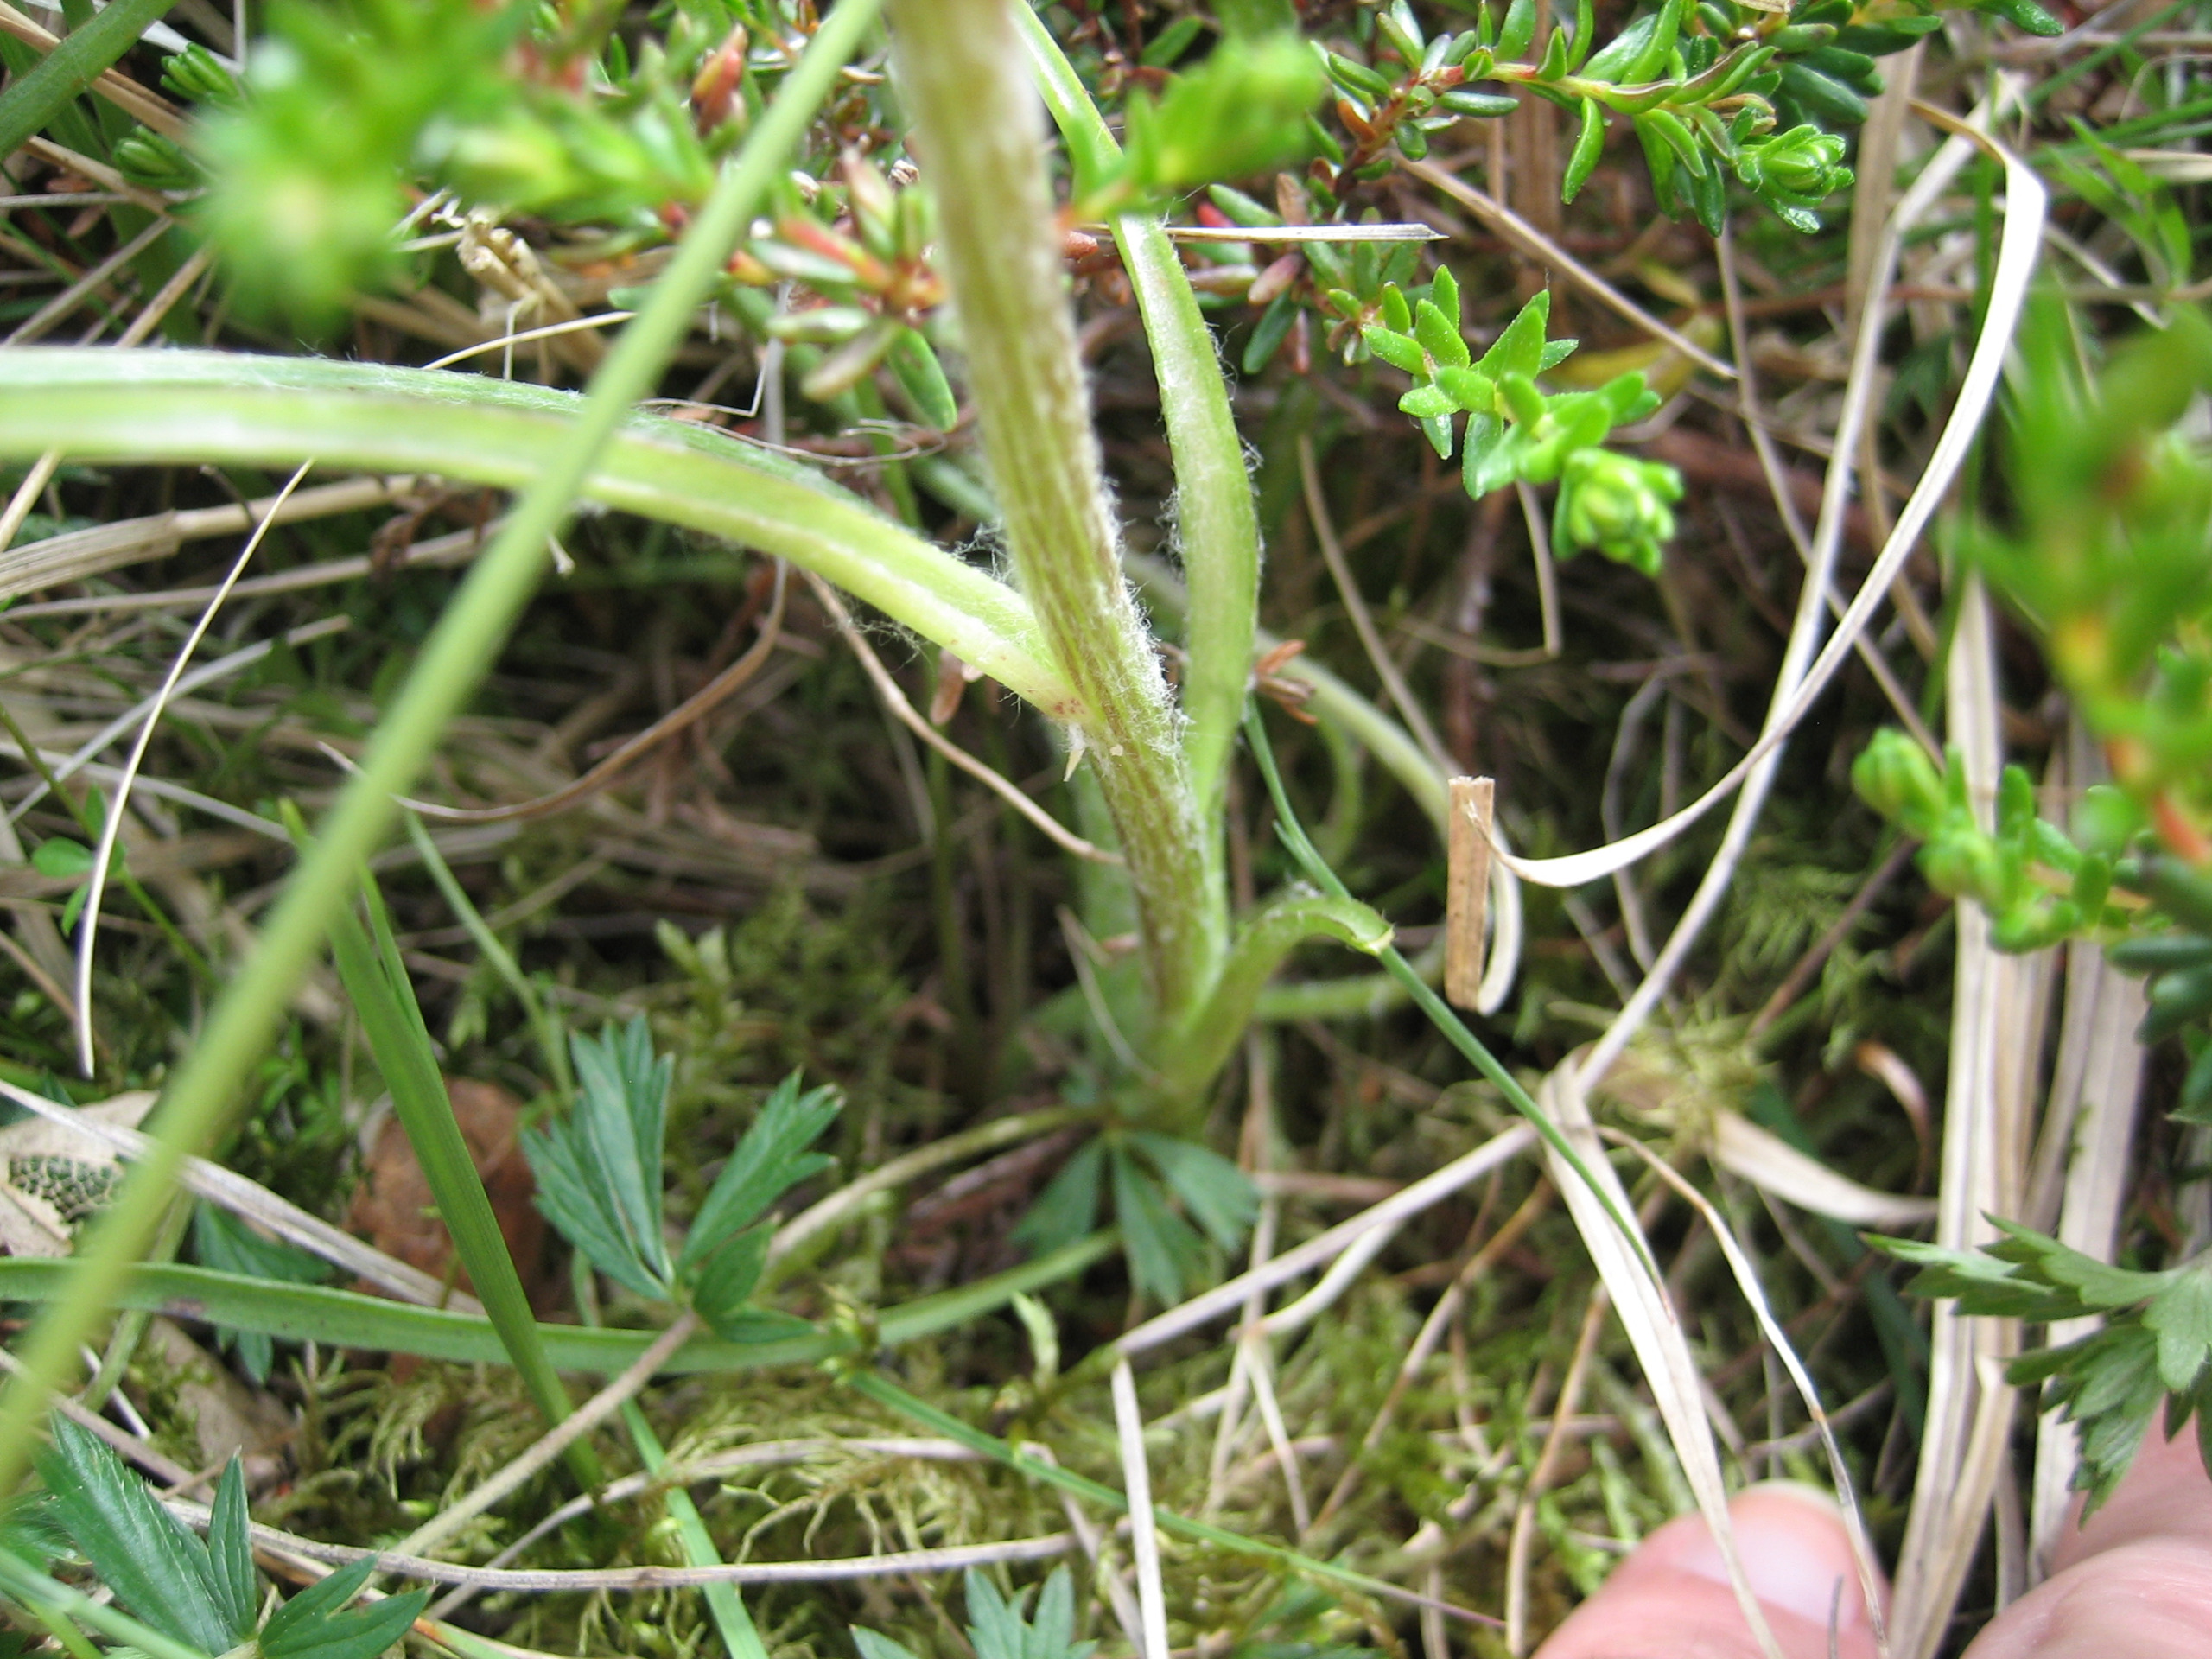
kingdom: Plantae
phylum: Tracheophyta
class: Magnoliopsida
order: Asterales
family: Asteraceae
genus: Scorzonera
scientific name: Scorzonera humilis
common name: Lav skorsoner
